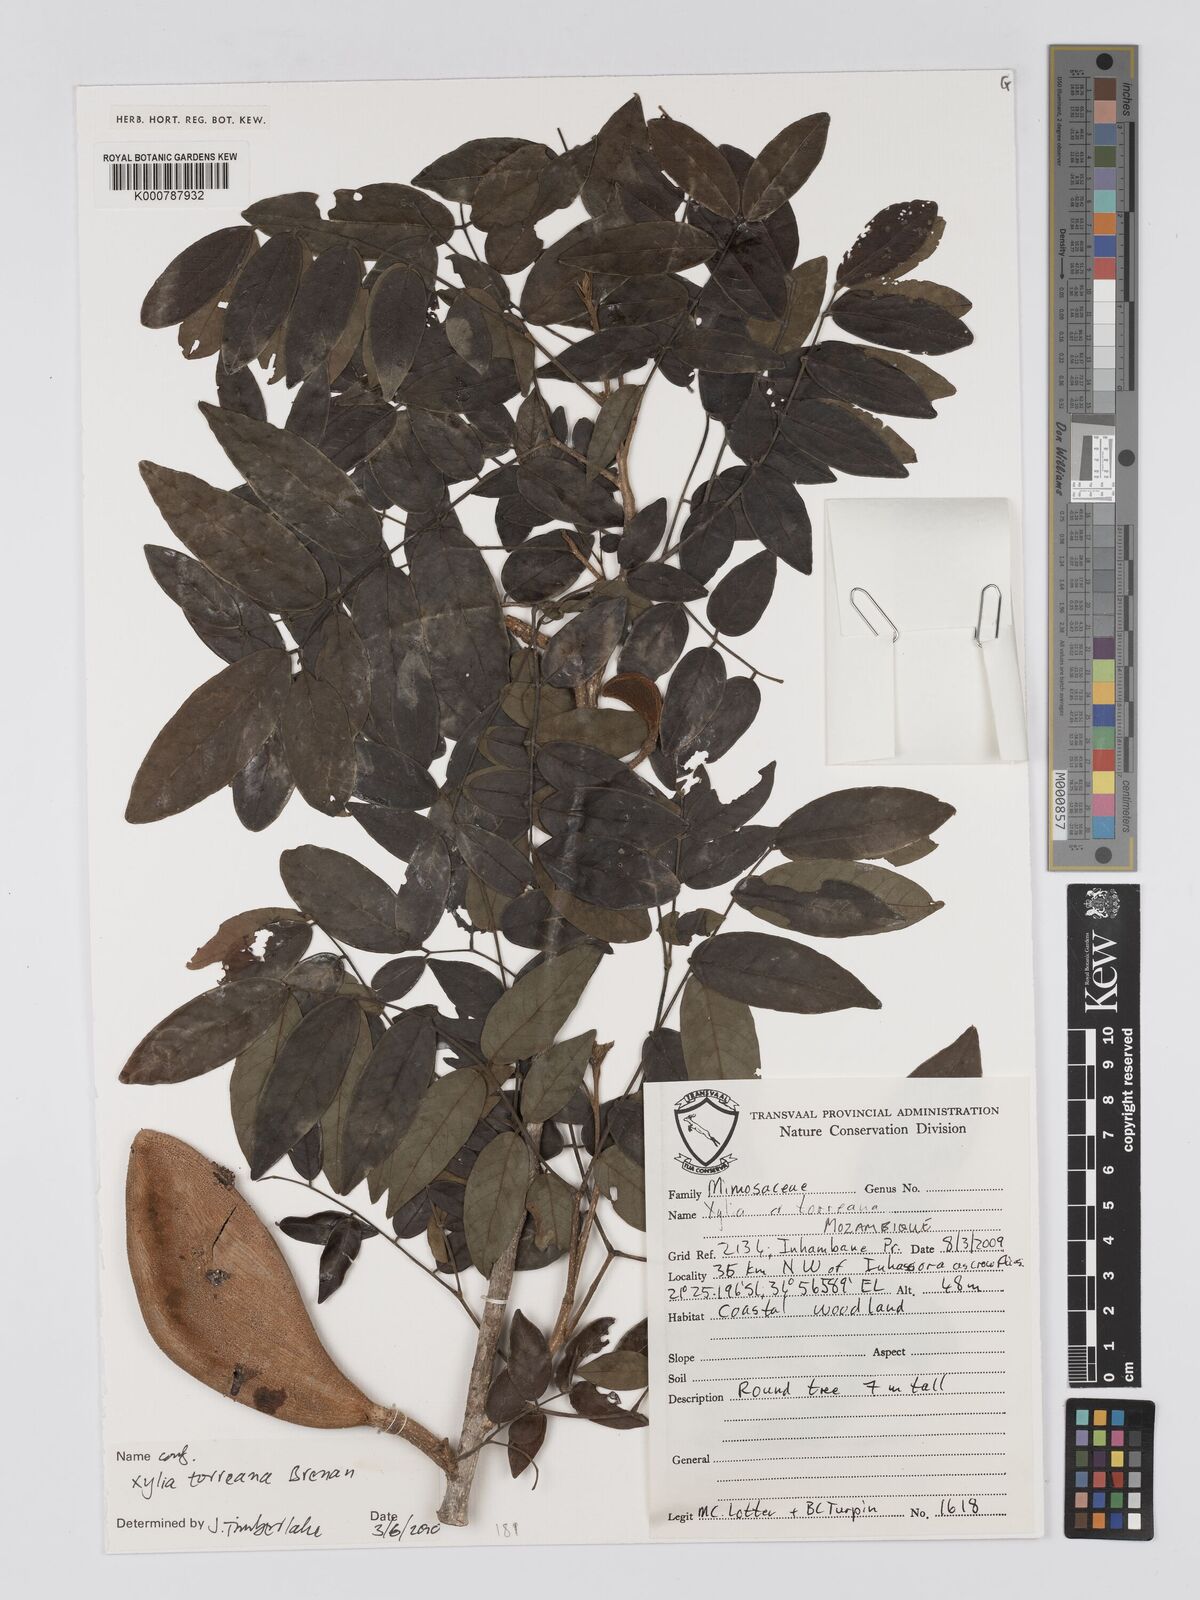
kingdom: Plantae
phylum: Tracheophyta
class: Magnoliopsida
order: Fabales
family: Fabaceae
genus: Xylia
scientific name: Xylia torreana
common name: Hairy sand ash
